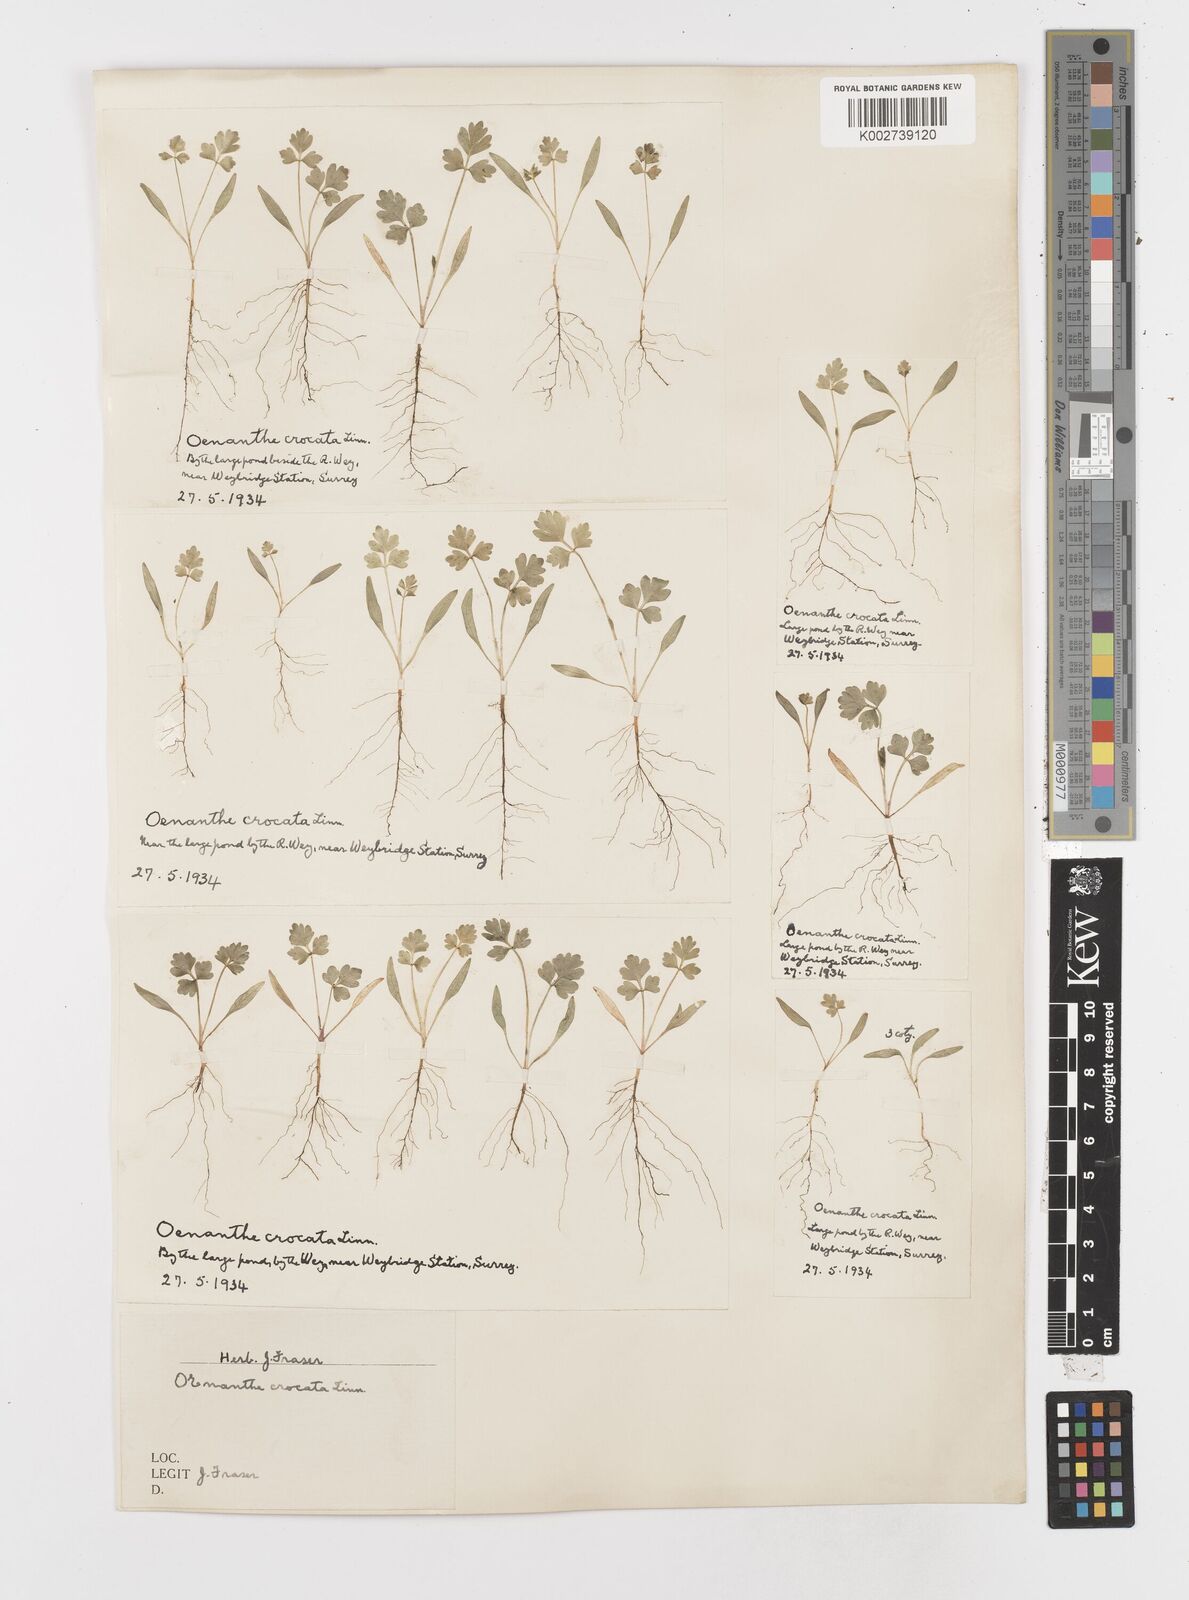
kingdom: Plantae
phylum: Tracheophyta
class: Magnoliopsida
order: Apiales
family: Apiaceae
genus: Oenanthe
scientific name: Oenanthe crocata
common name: Hemlock water-dropwort
